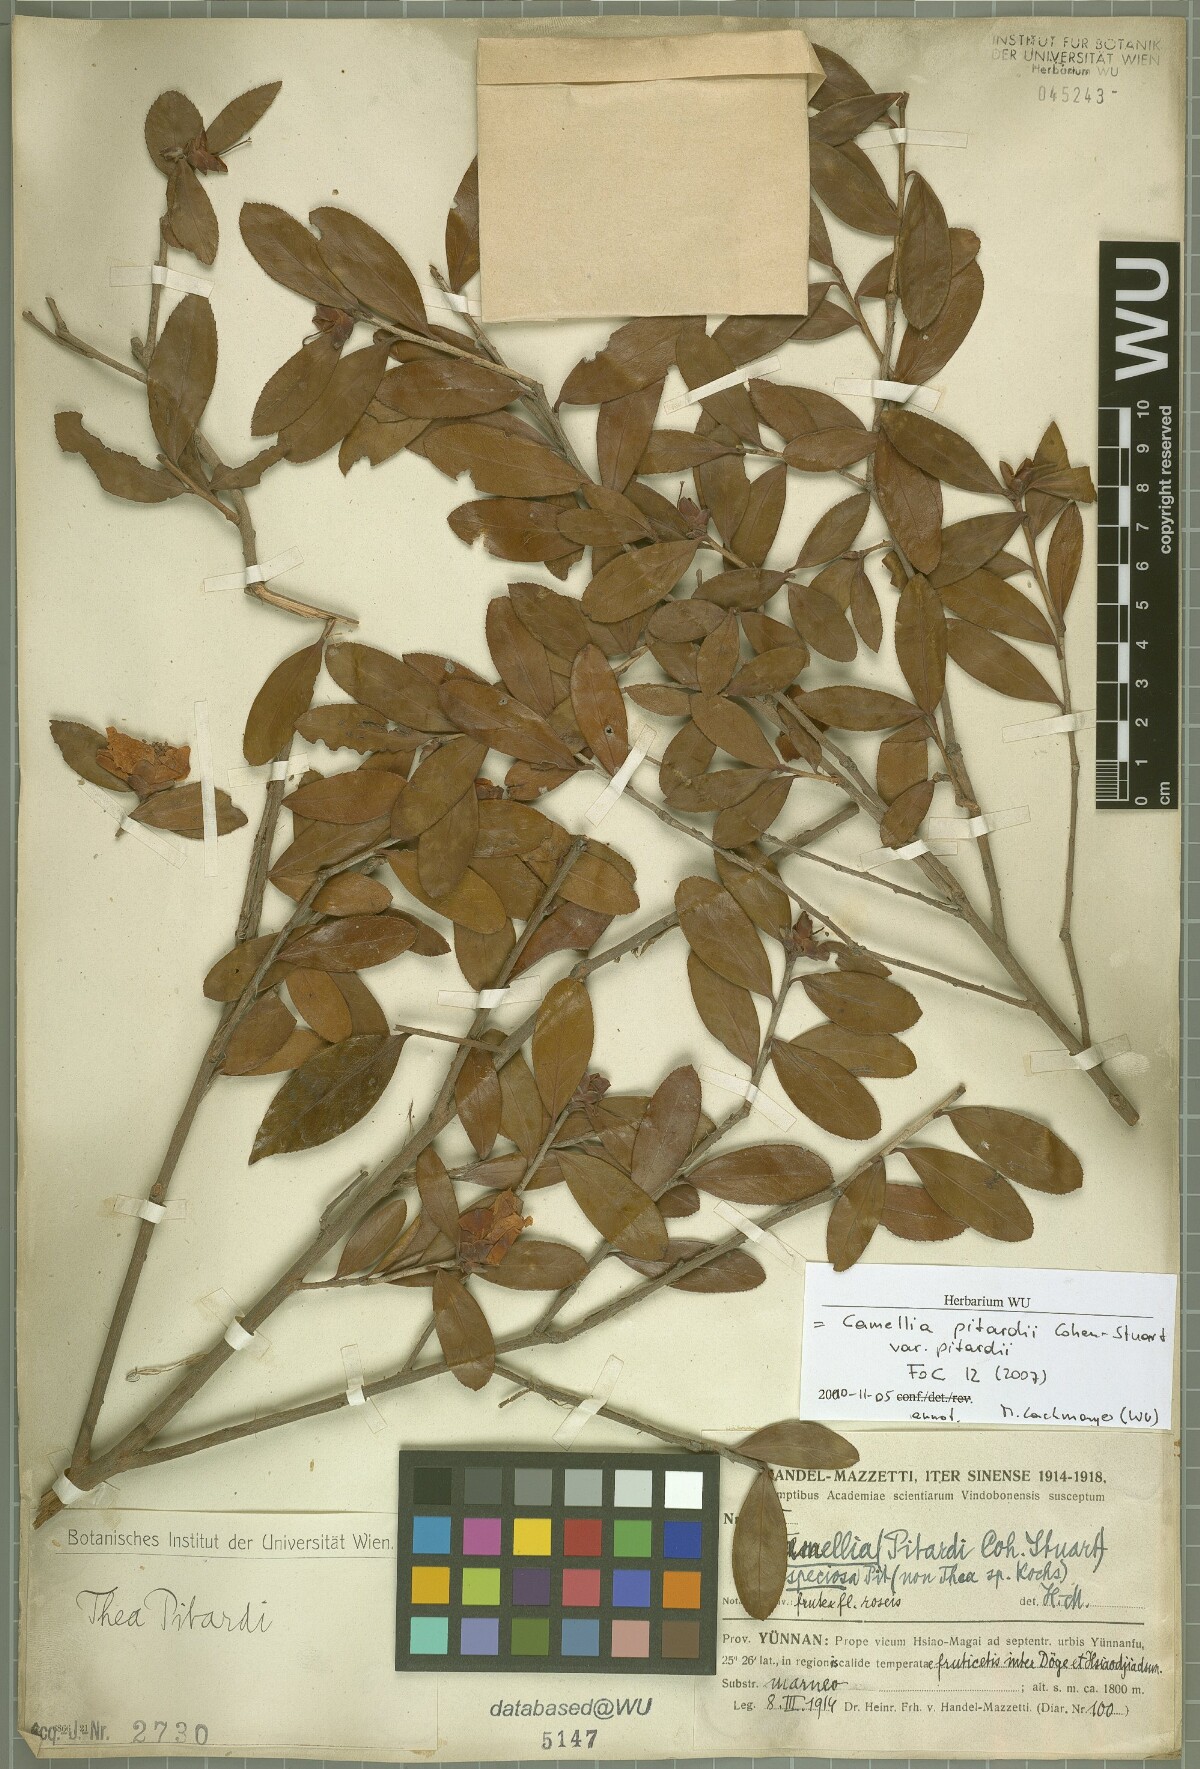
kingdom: Plantae
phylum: Tracheophyta
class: Magnoliopsida
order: Ericales
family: Theaceae
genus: Camellia
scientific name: Camellia pitardii
